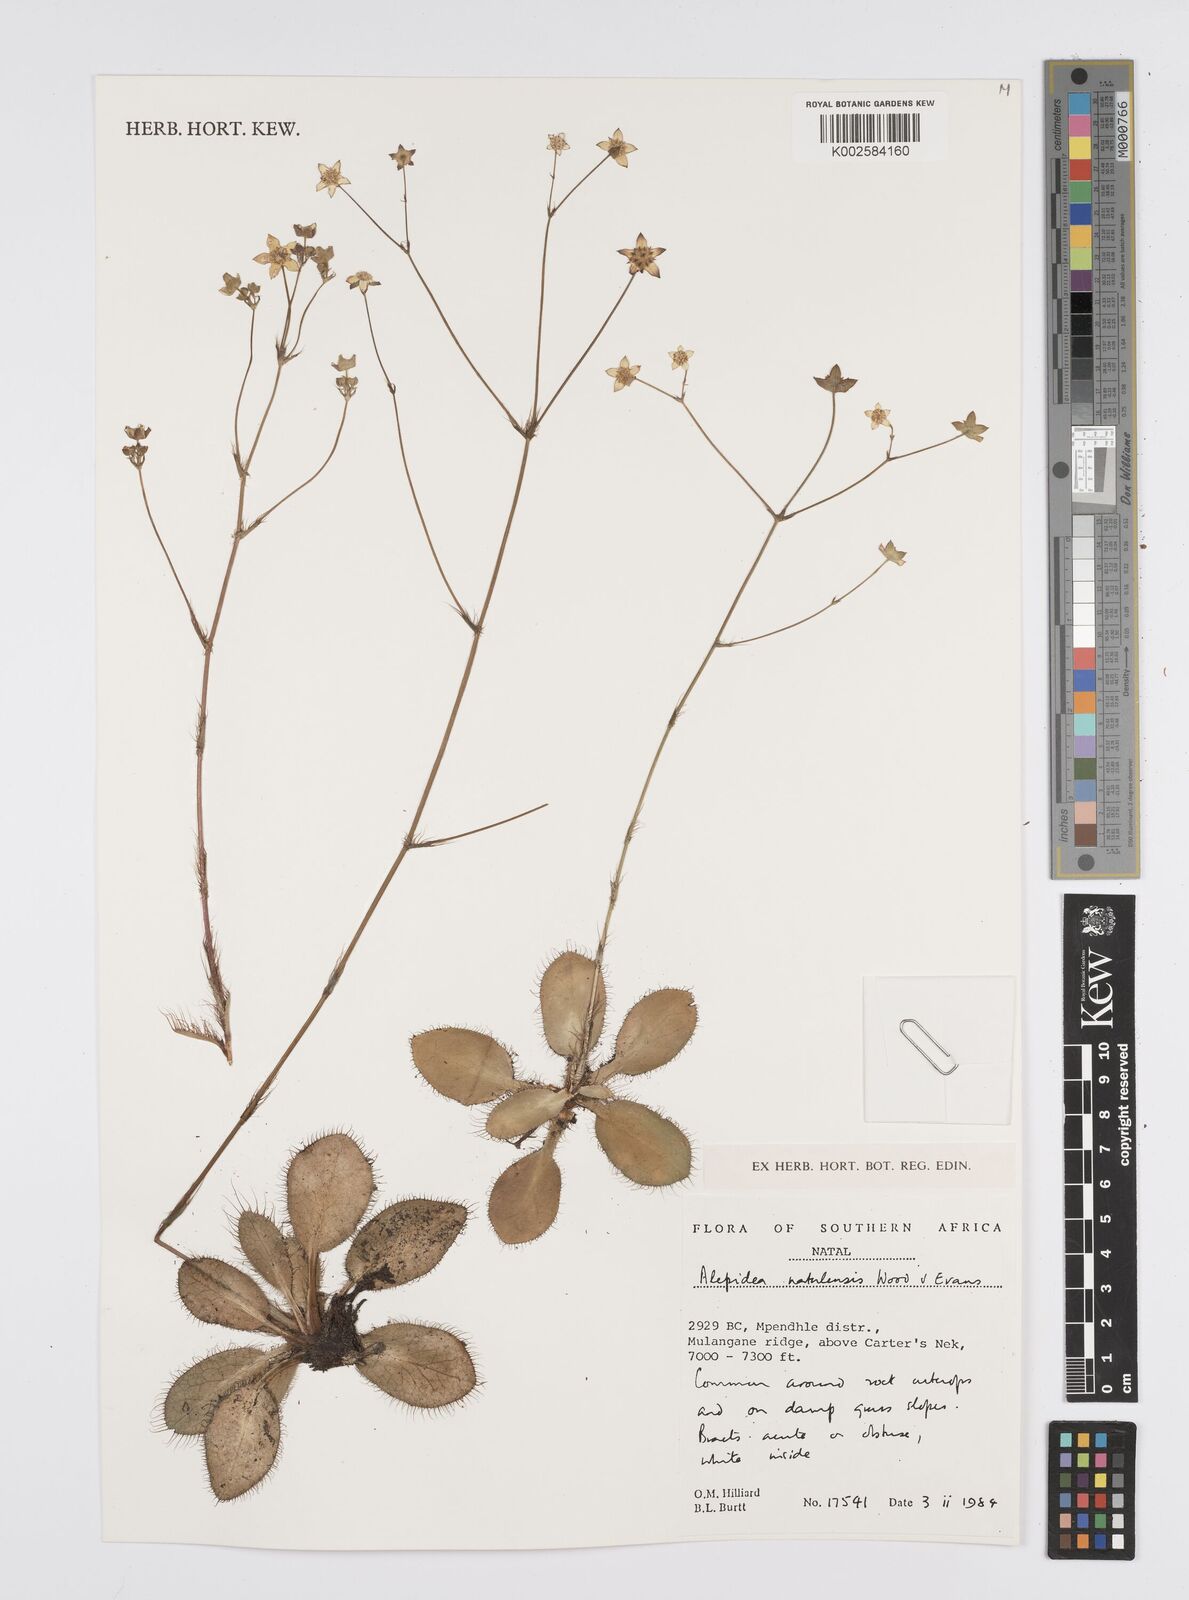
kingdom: Plantae
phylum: Tracheophyta
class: Magnoliopsida
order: Apiales
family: Apiaceae
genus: Alepidea
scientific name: Alepidea natalensis
